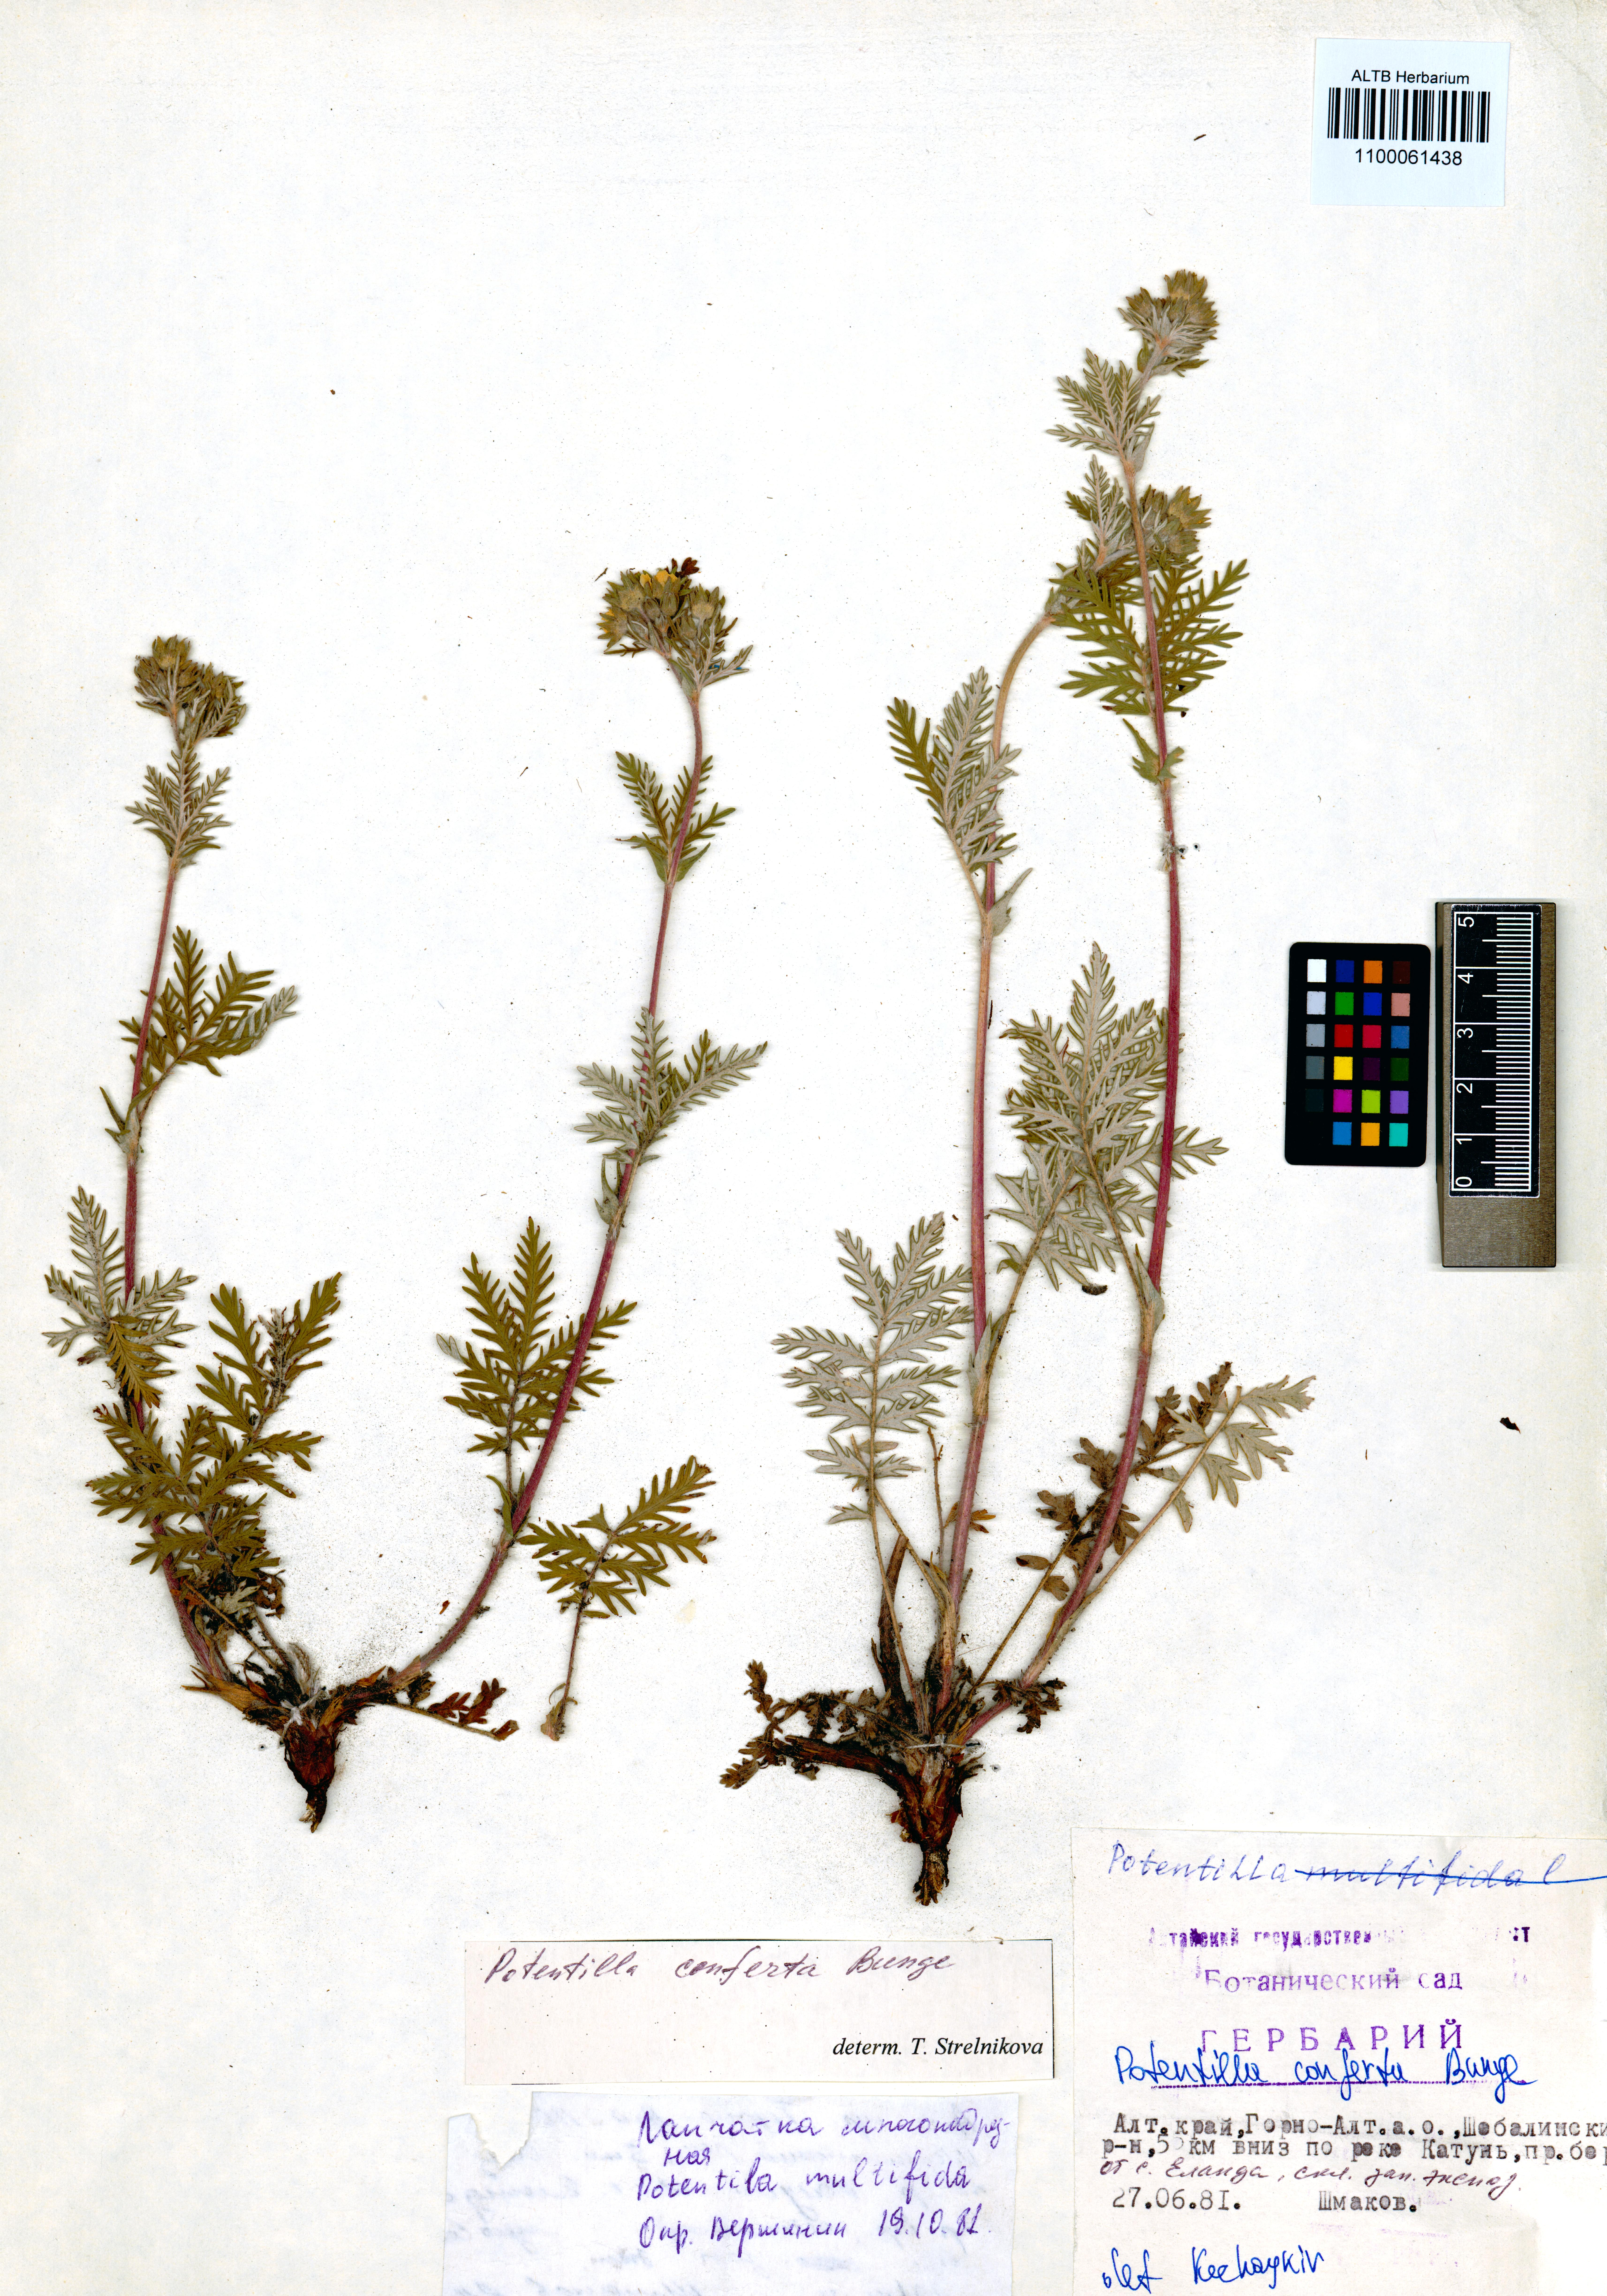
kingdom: Plantae
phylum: Tracheophyta
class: Magnoliopsida
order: Rosales
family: Rosaceae
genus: Potentilla
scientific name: Potentilla conferta
